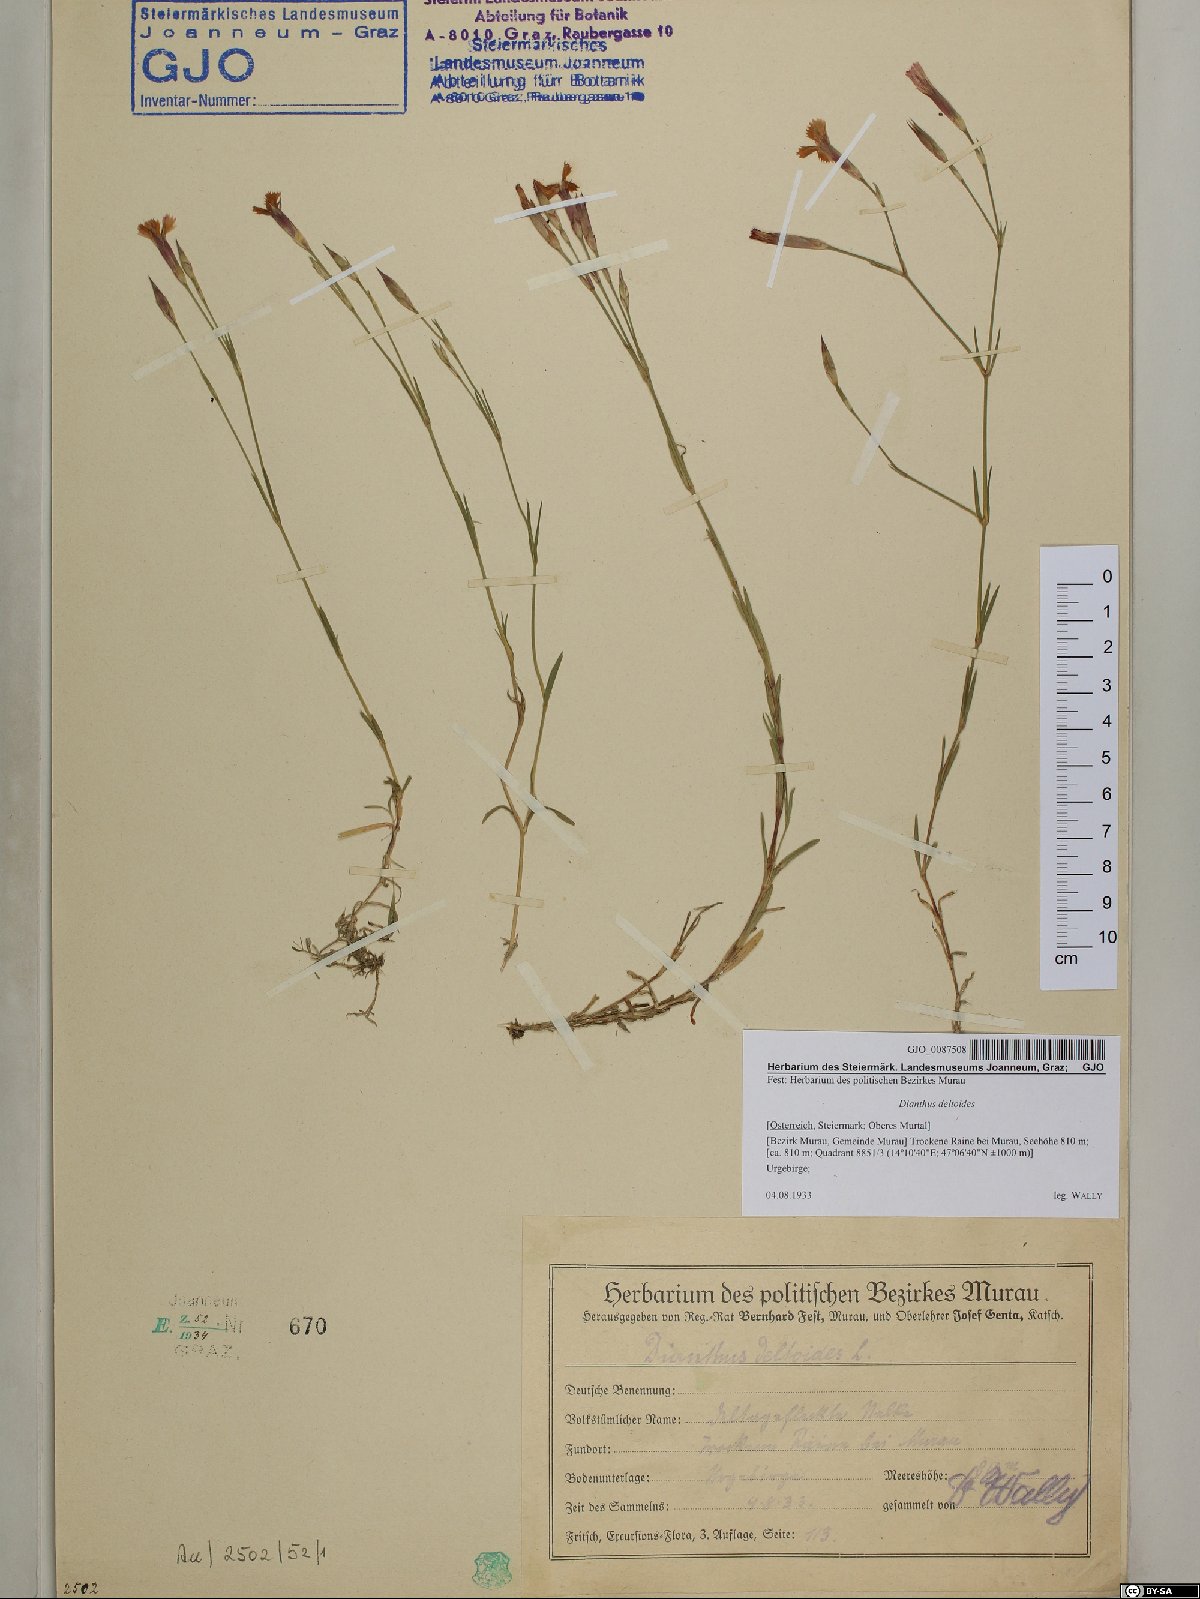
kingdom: Plantae
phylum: Tracheophyta
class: Magnoliopsida
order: Caryophyllales
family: Caryophyllaceae
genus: Dianthus
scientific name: Dianthus deltoides
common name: Maiden pink
